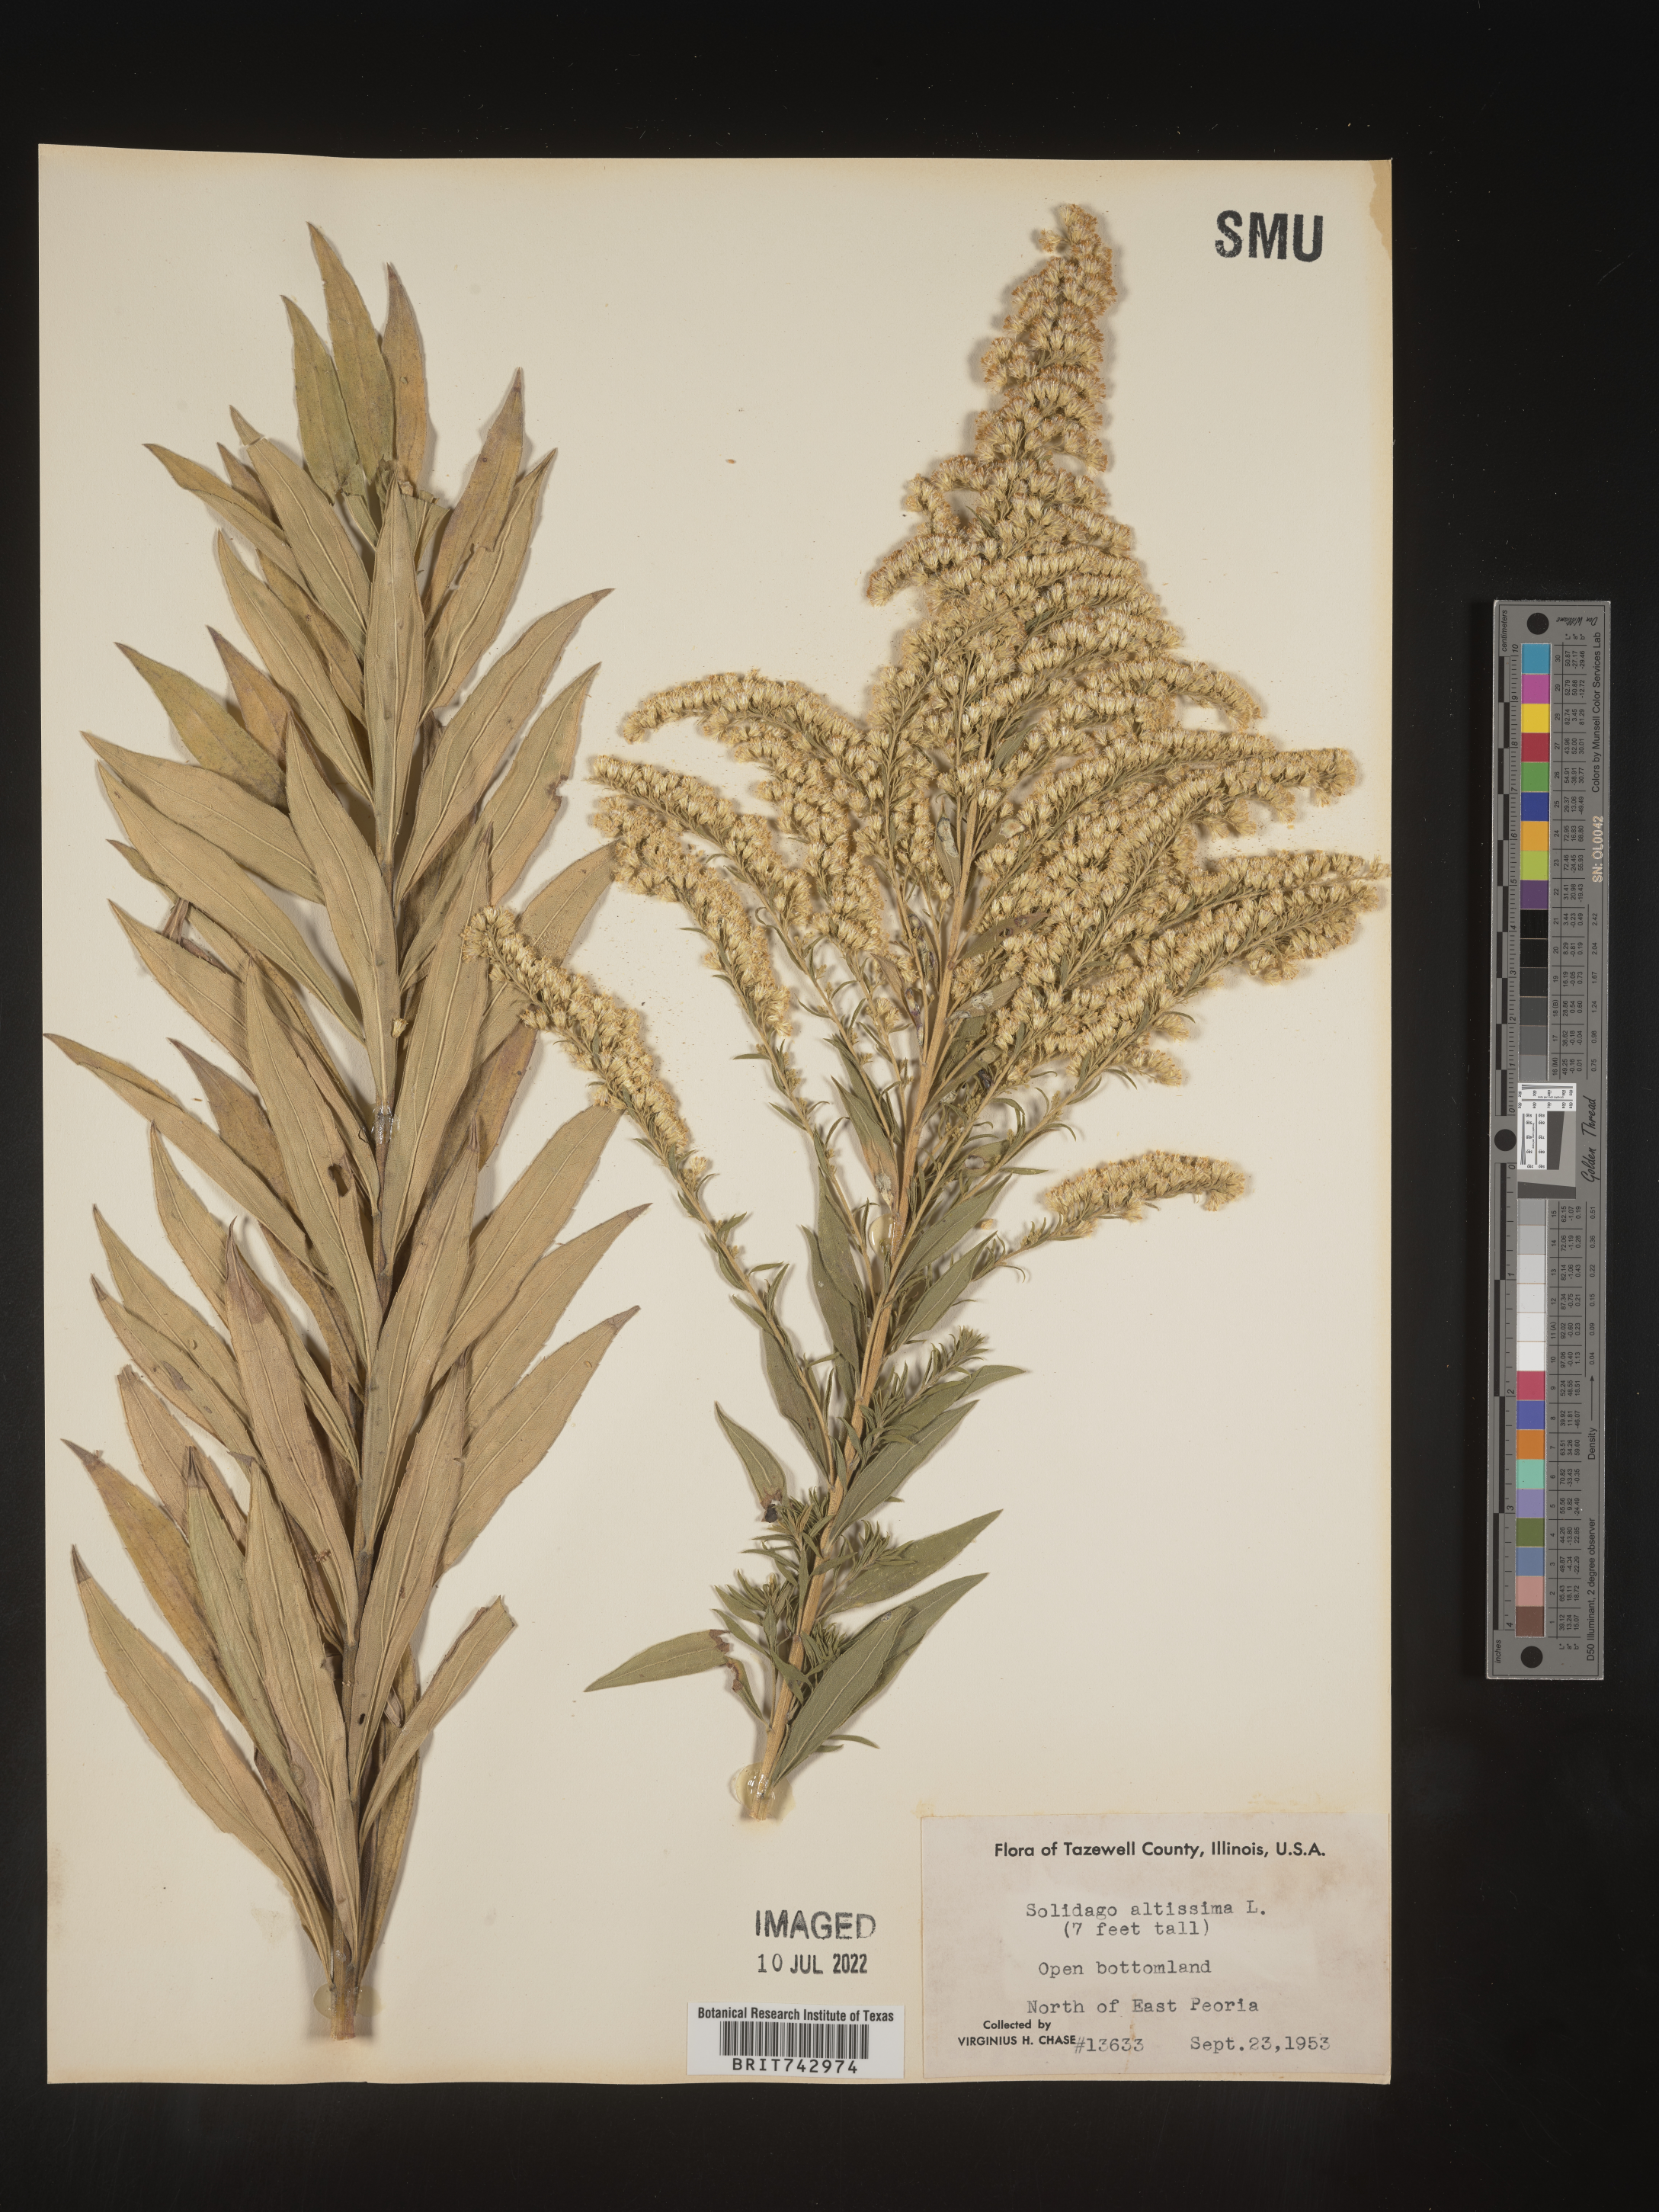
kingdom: Plantae
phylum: Tracheophyta
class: Magnoliopsida
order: Asterales
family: Asteraceae
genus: Solidago
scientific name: Solidago altissima
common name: Late goldenrod
